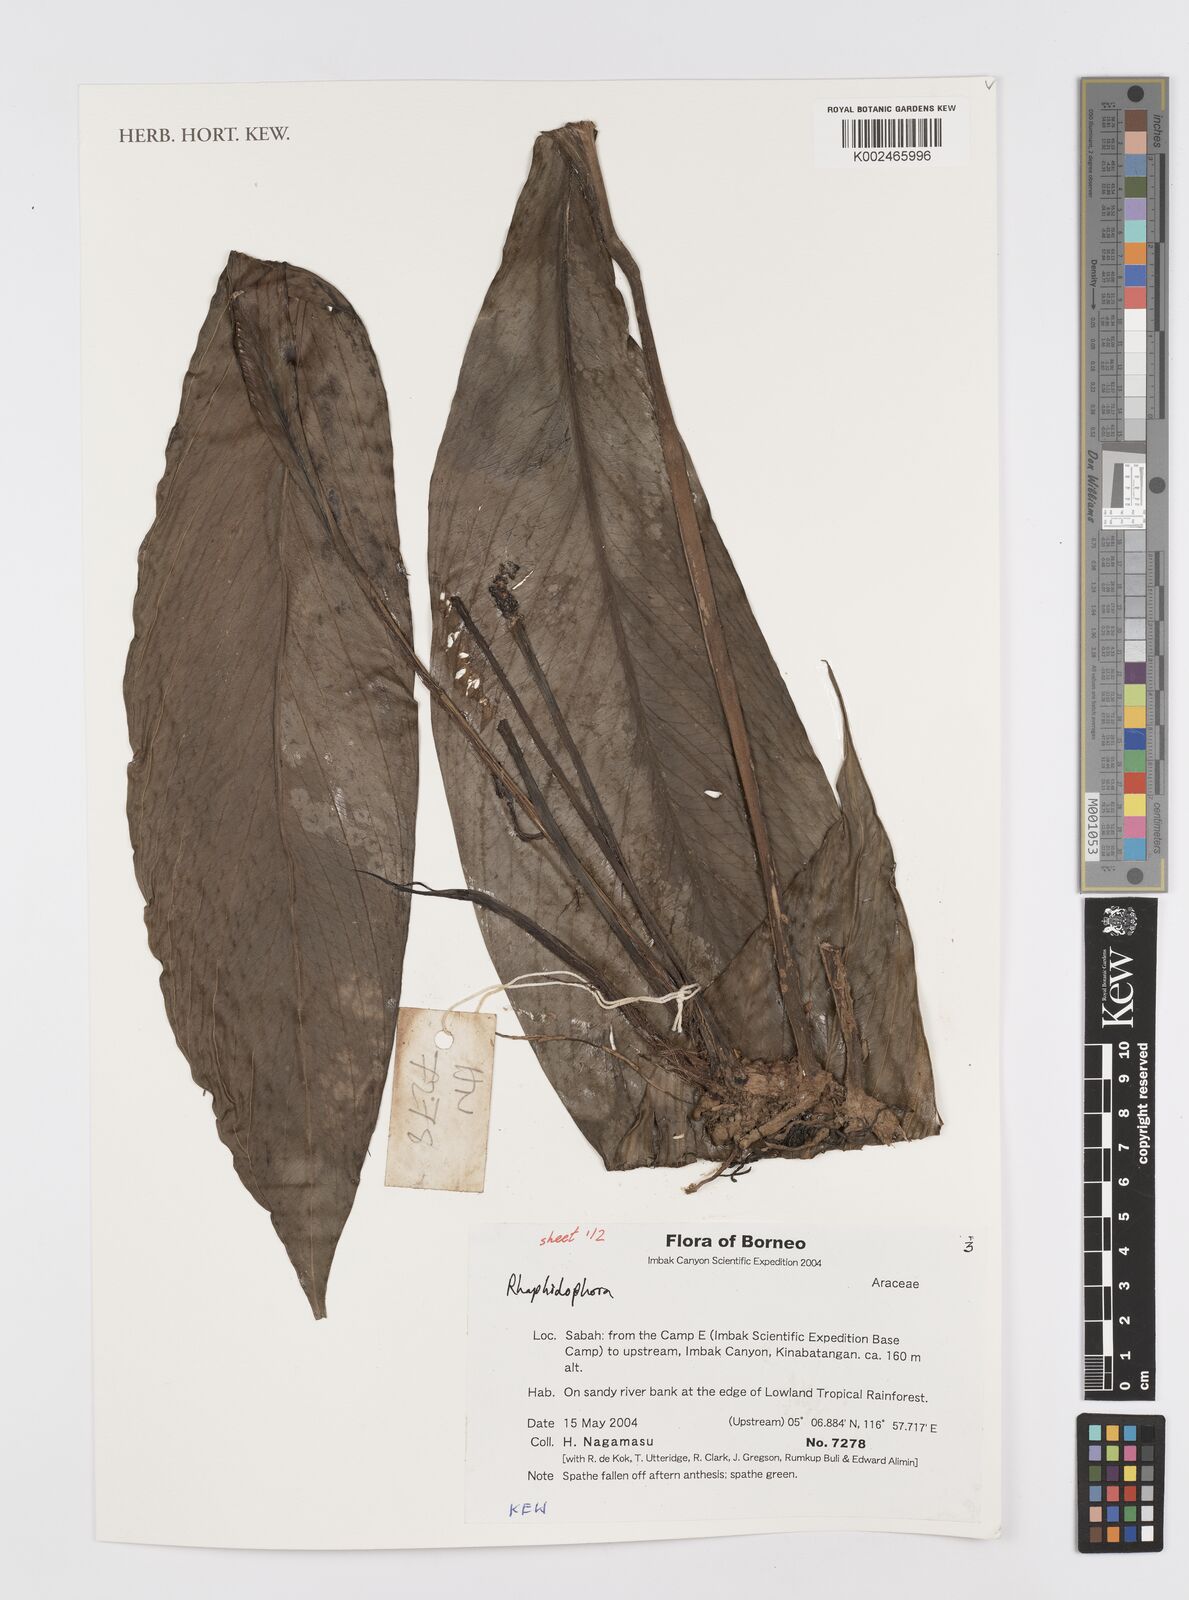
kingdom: Plantae
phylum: Tracheophyta
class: Liliopsida
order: Alismatales
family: Araceae
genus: Rhaphidophora
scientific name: Rhaphidophora
